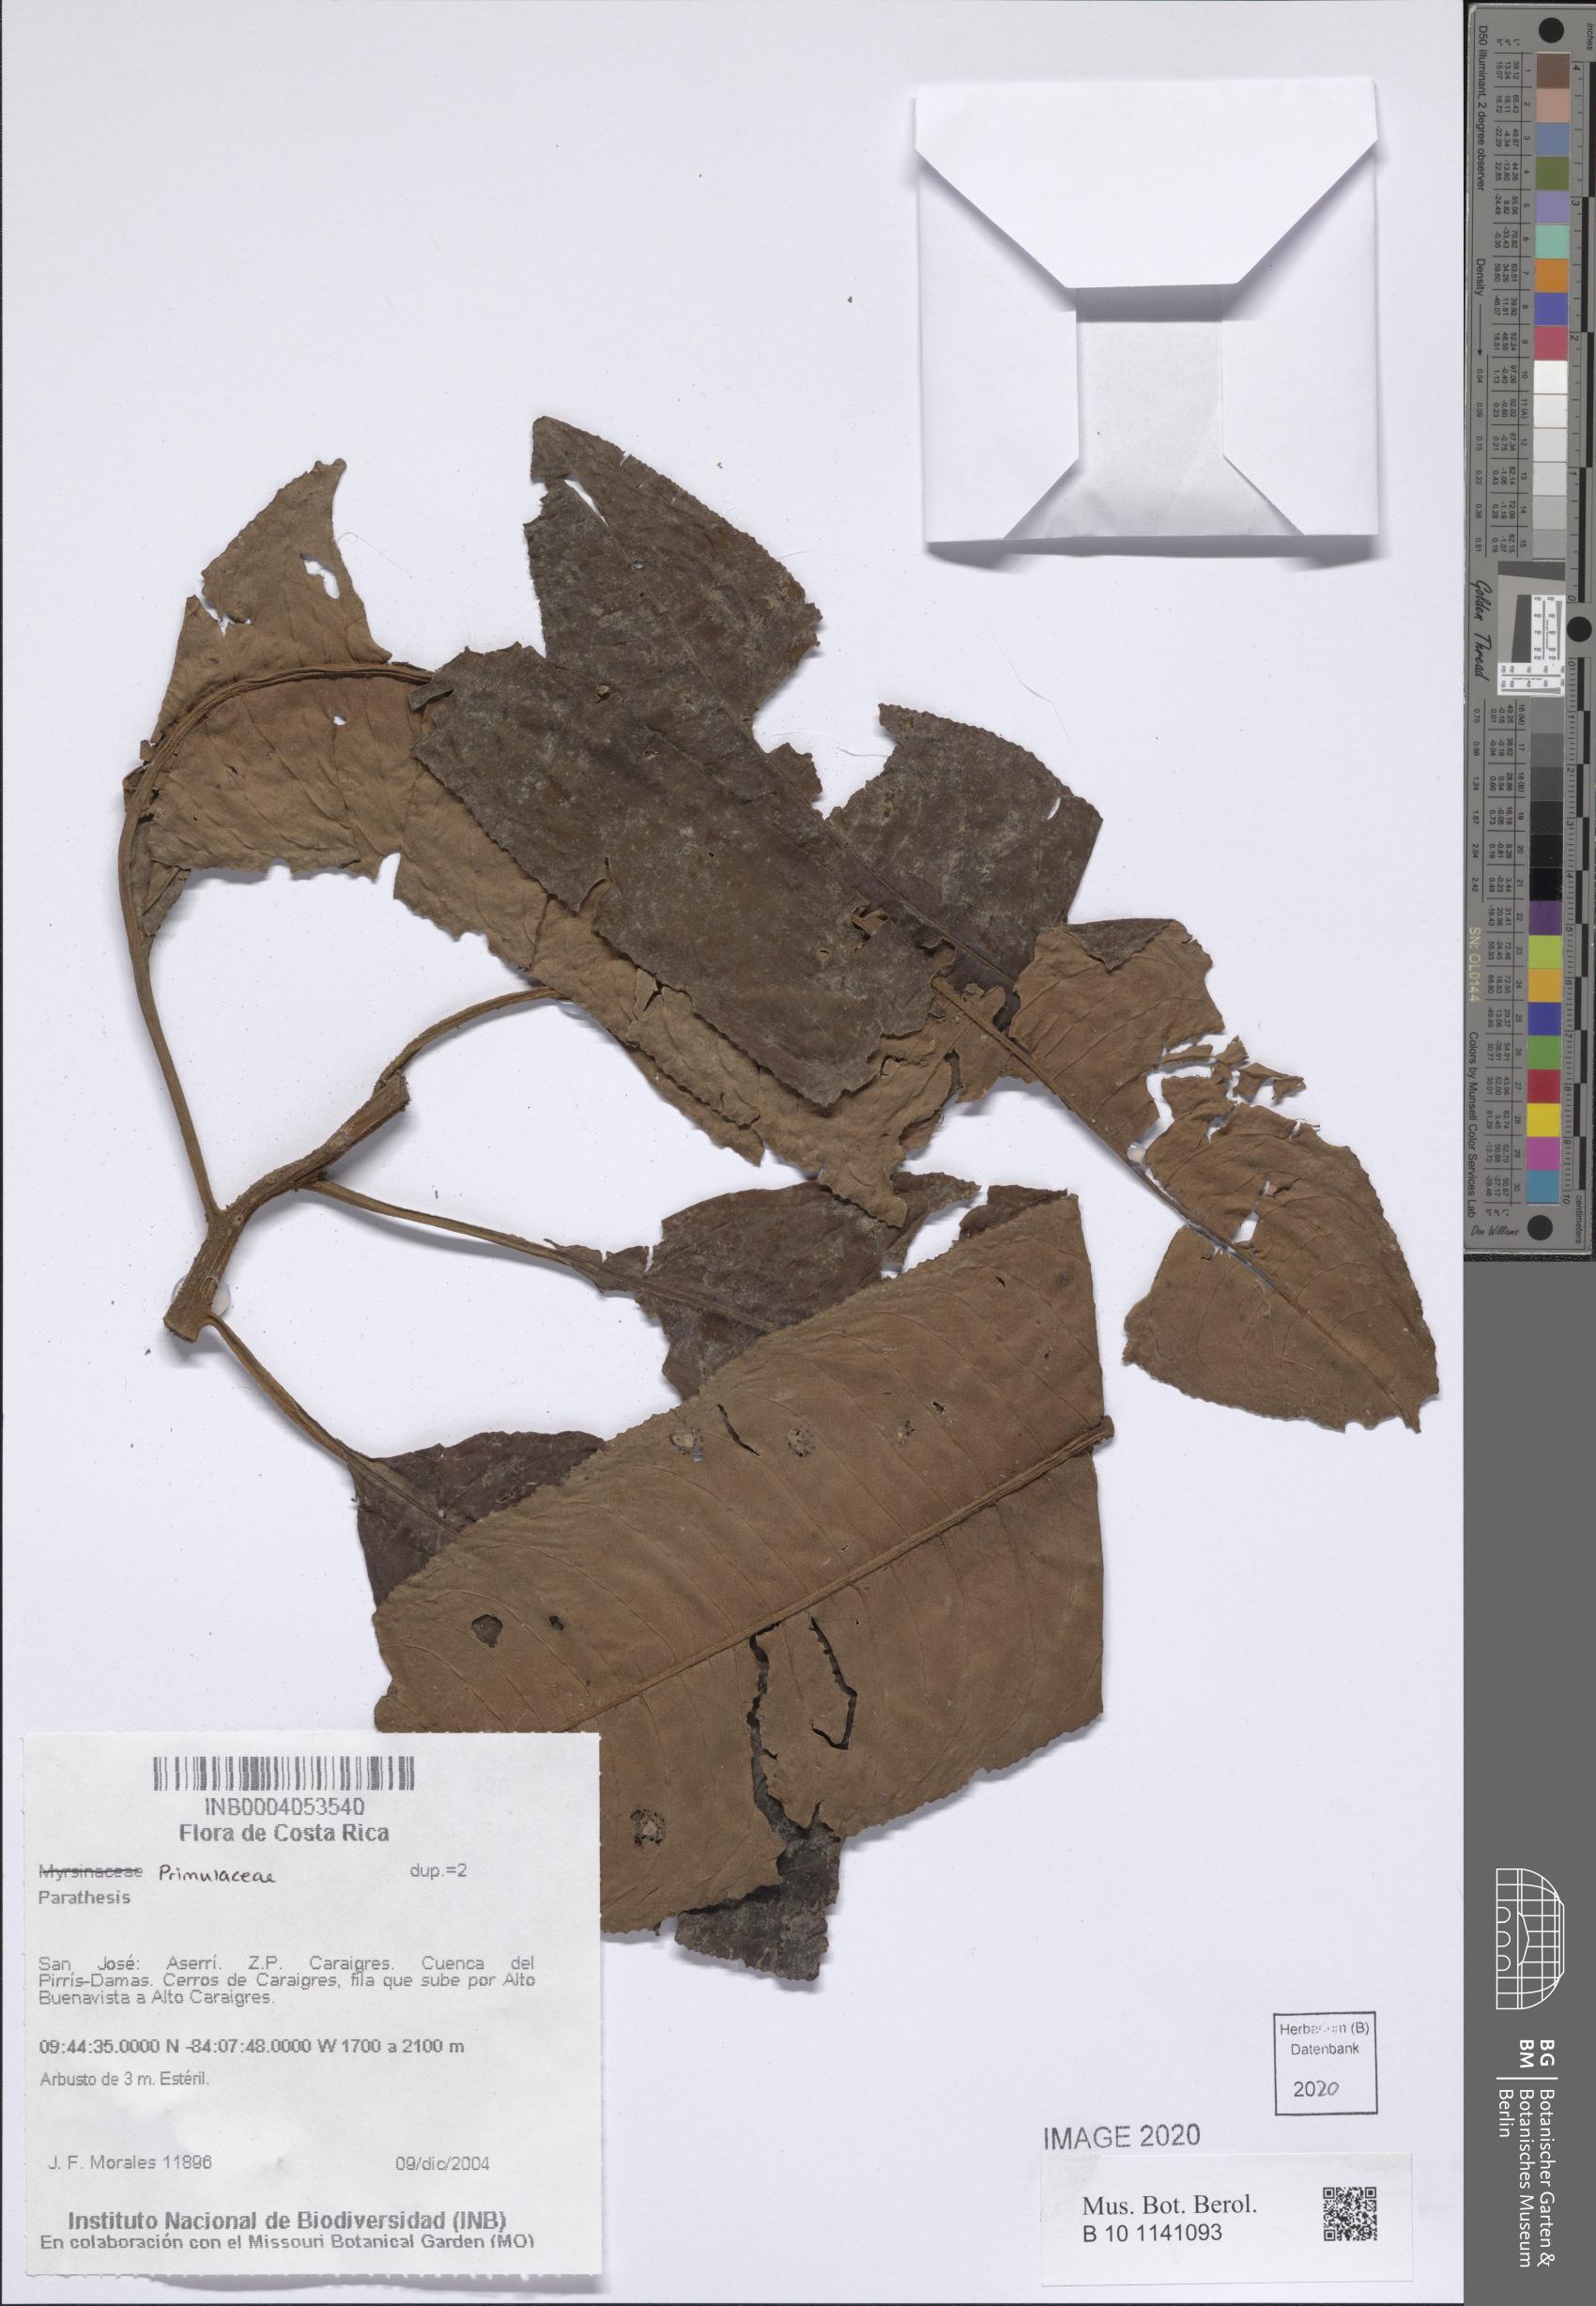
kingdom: Plantae
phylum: Tracheophyta
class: Magnoliopsida
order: Ericales
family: Primulaceae
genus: Parathesis
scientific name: Parathesis
